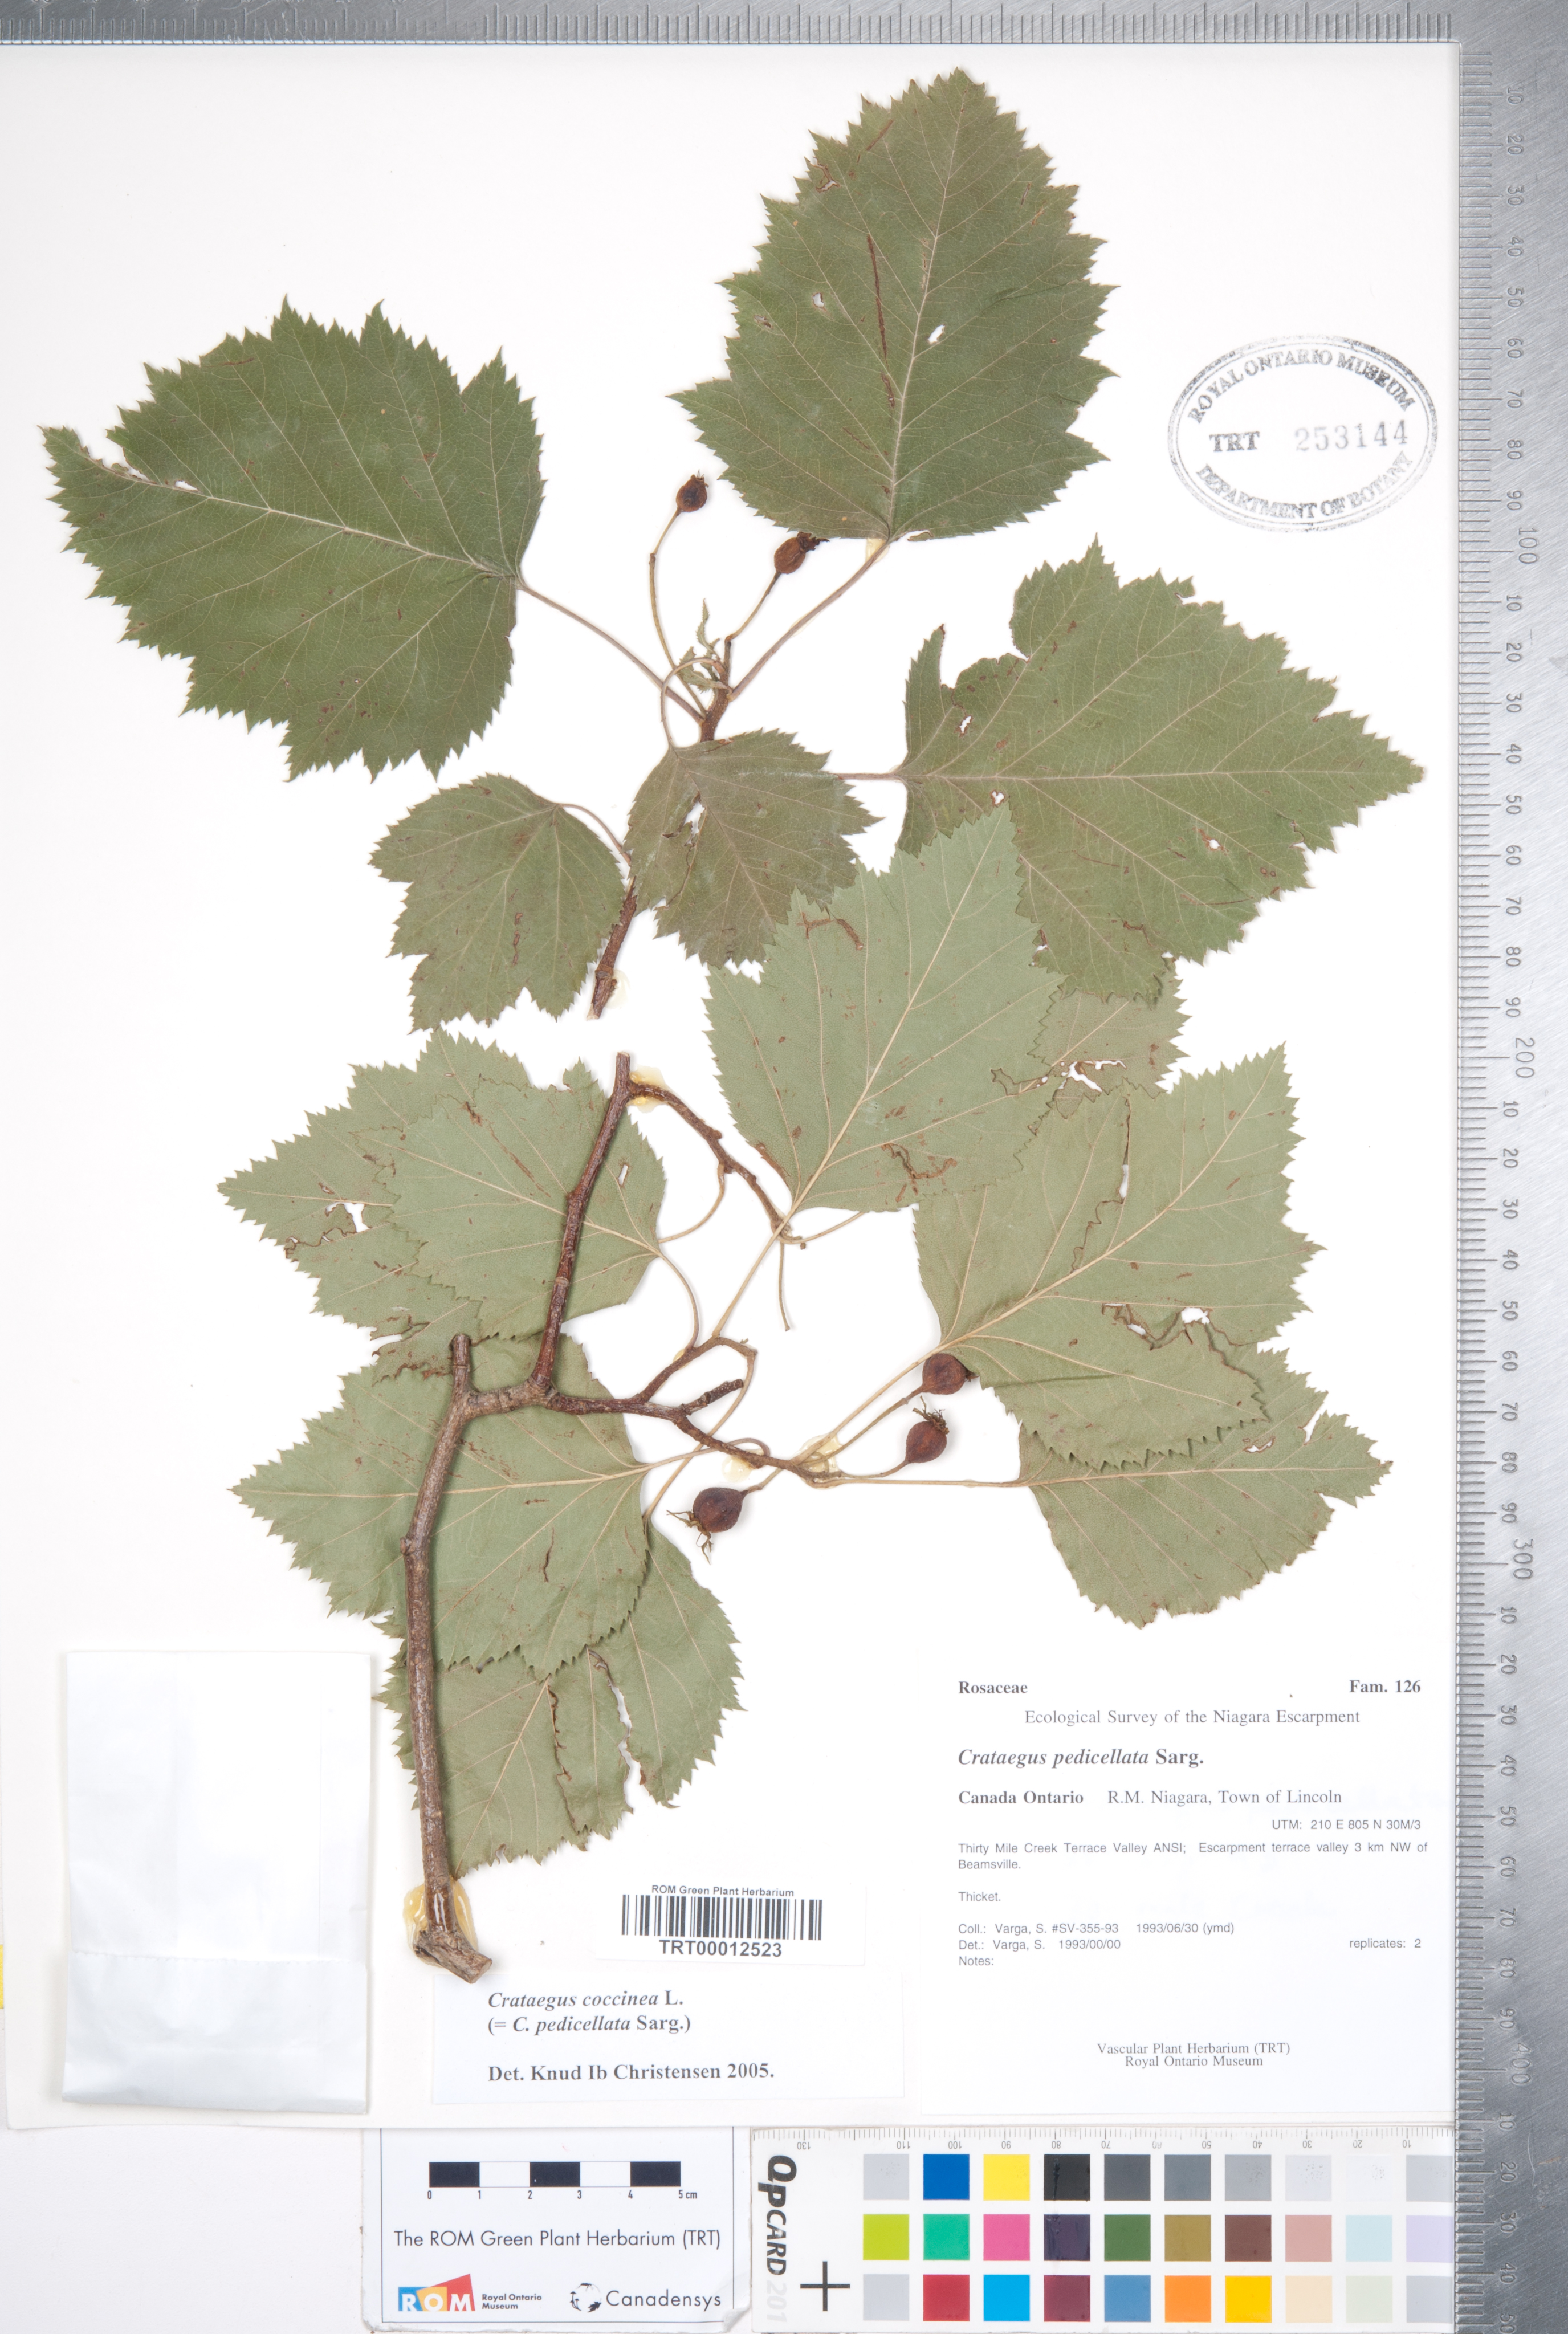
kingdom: Plantae
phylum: Tracheophyta
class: Magnoliopsida
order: Rosales
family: Rosaceae
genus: Crataegus
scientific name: Crataegus coccinea
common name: Scarlet hawthorn
